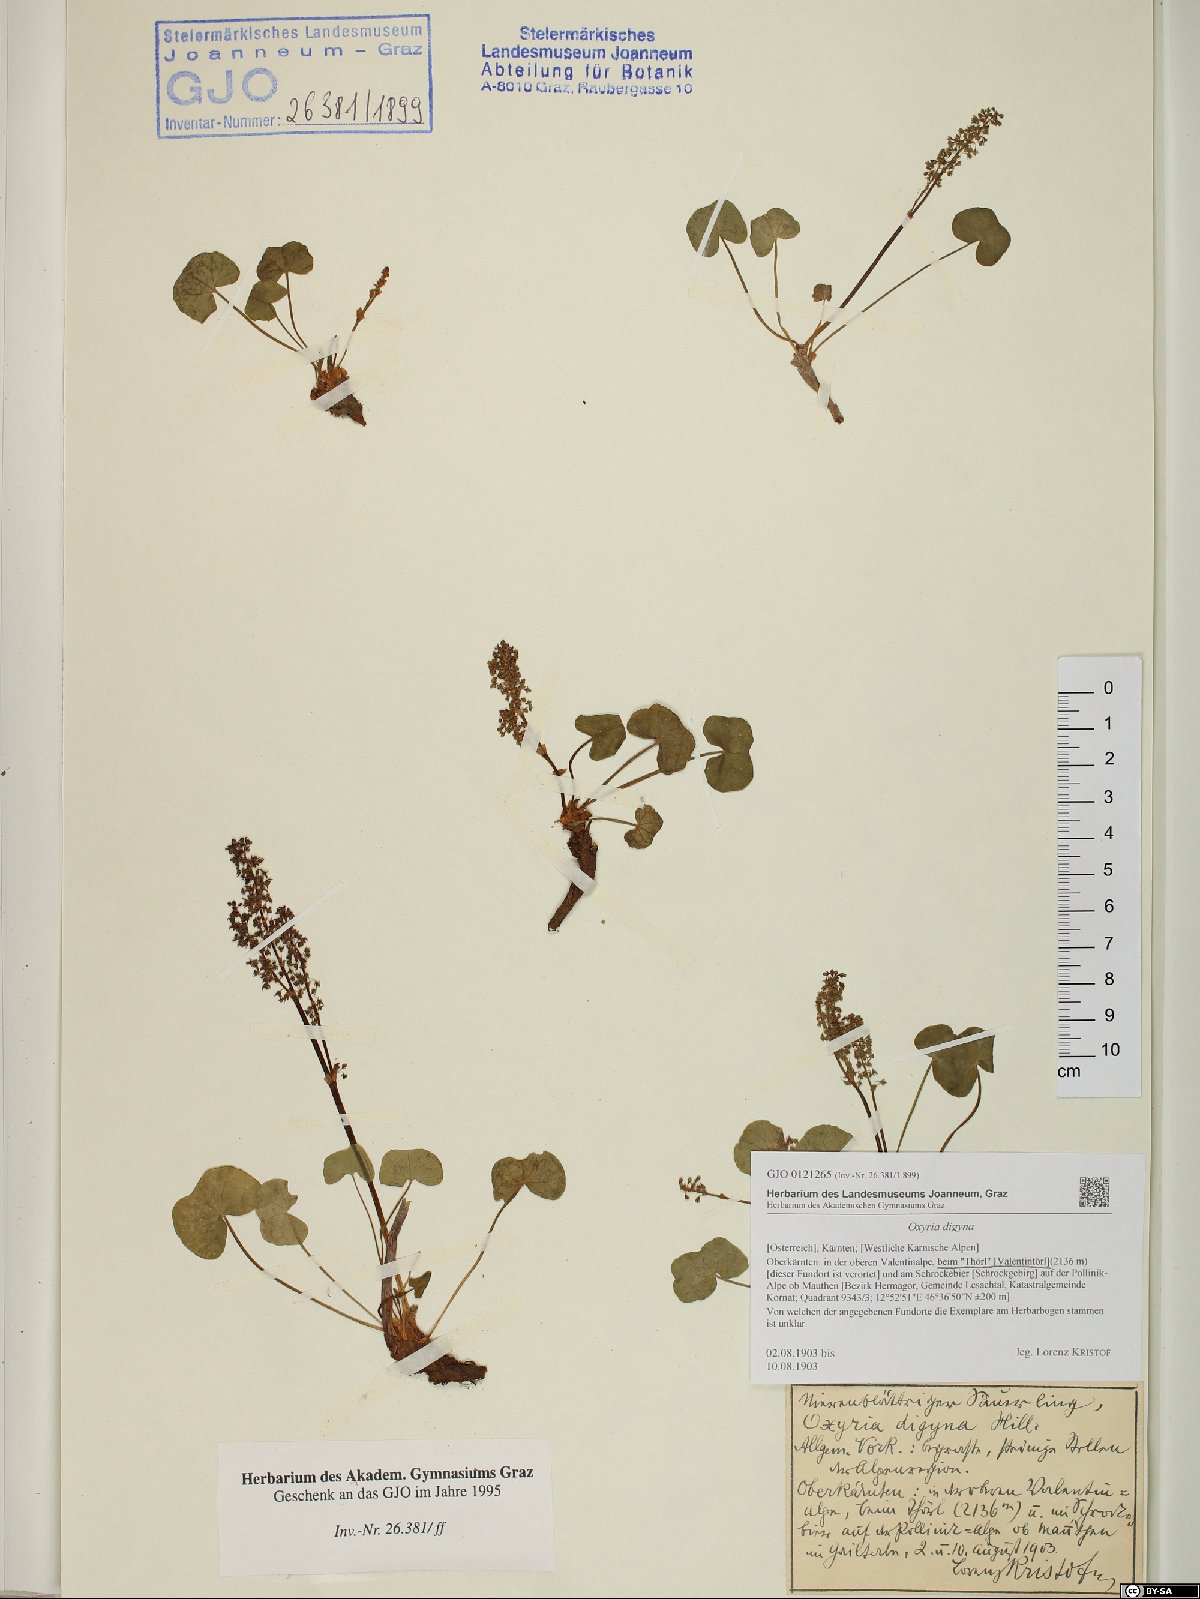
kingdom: Plantae
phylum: Tracheophyta
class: Magnoliopsida
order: Caryophyllales
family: Polygonaceae
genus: Oxyria
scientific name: Oxyria digyna
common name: Alpine mountain-sorrel
